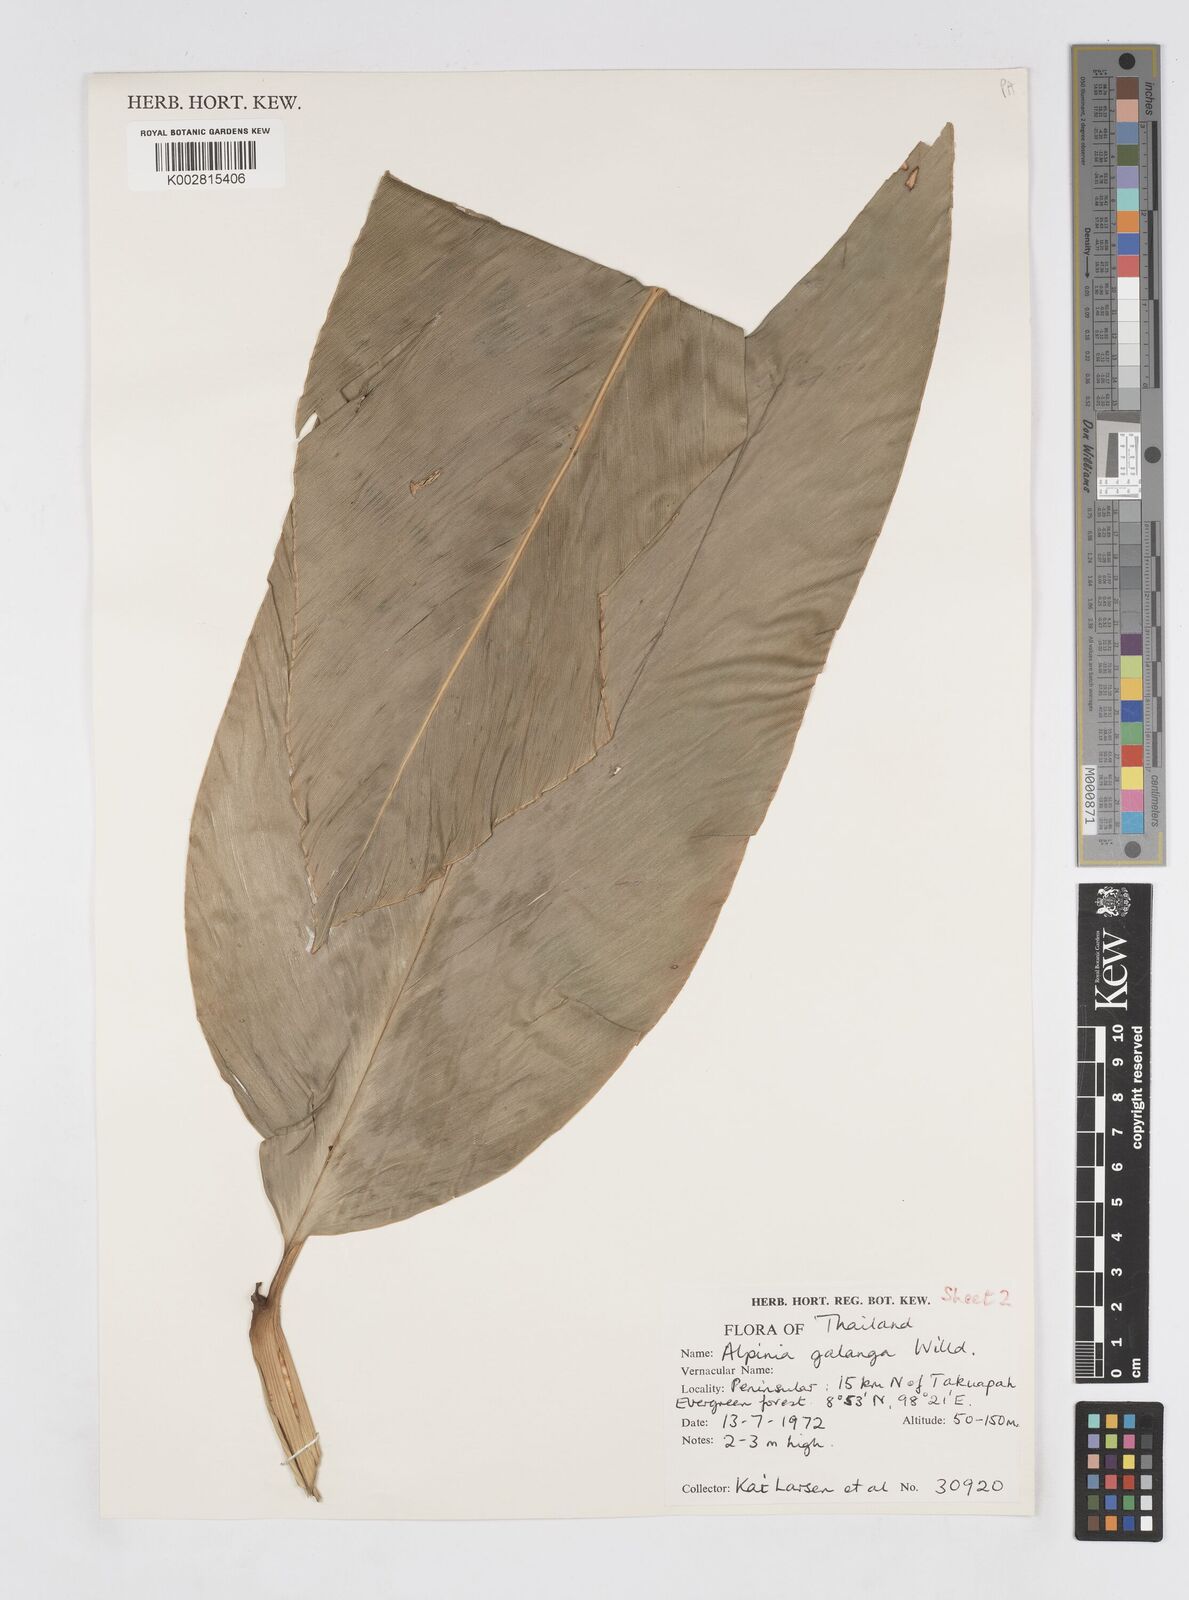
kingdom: Plantae
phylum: Tracheophyta
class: Liliopsida
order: Zingiberales
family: Zingiberaceae
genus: Alpinia
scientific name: Alpinia galanga
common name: Siamese-ginger
